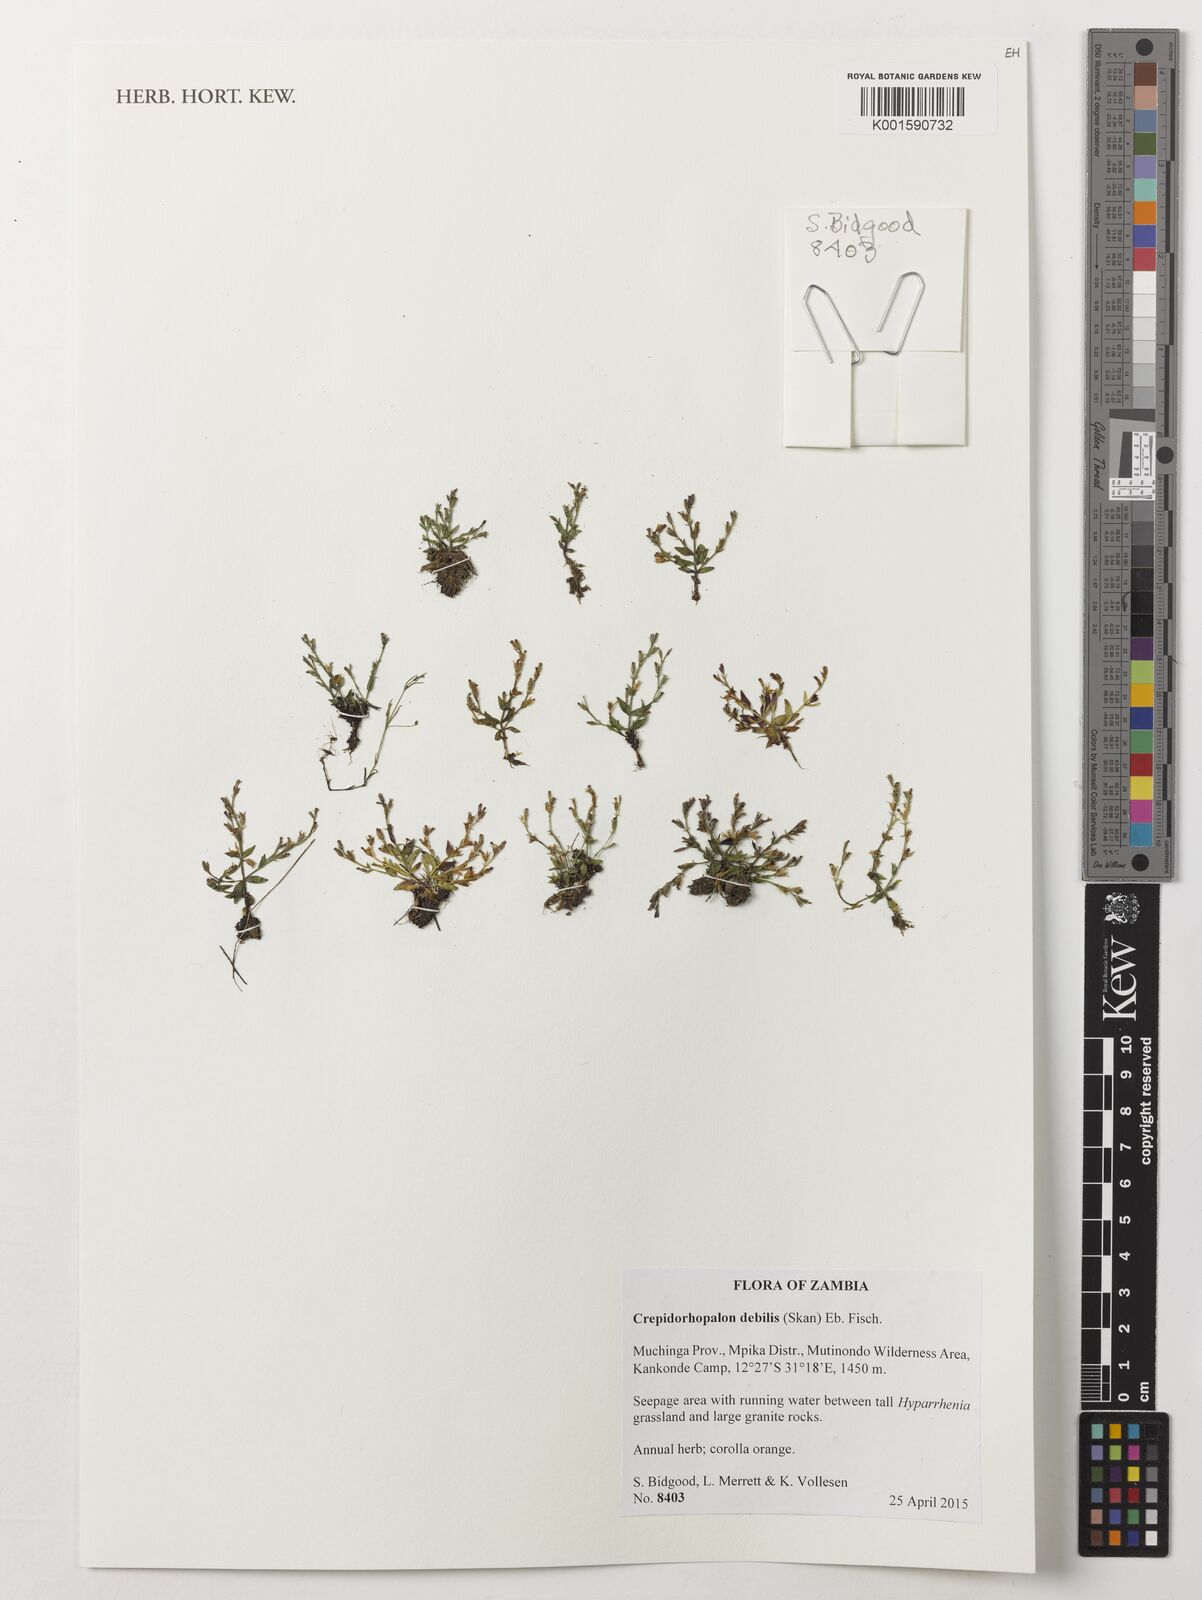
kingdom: Plantae
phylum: Tracheophyta
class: Magnoliopsida
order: Lamiales
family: Linderniaceae
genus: Crepidorhopalon
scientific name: Crepidorhopalon debilis
